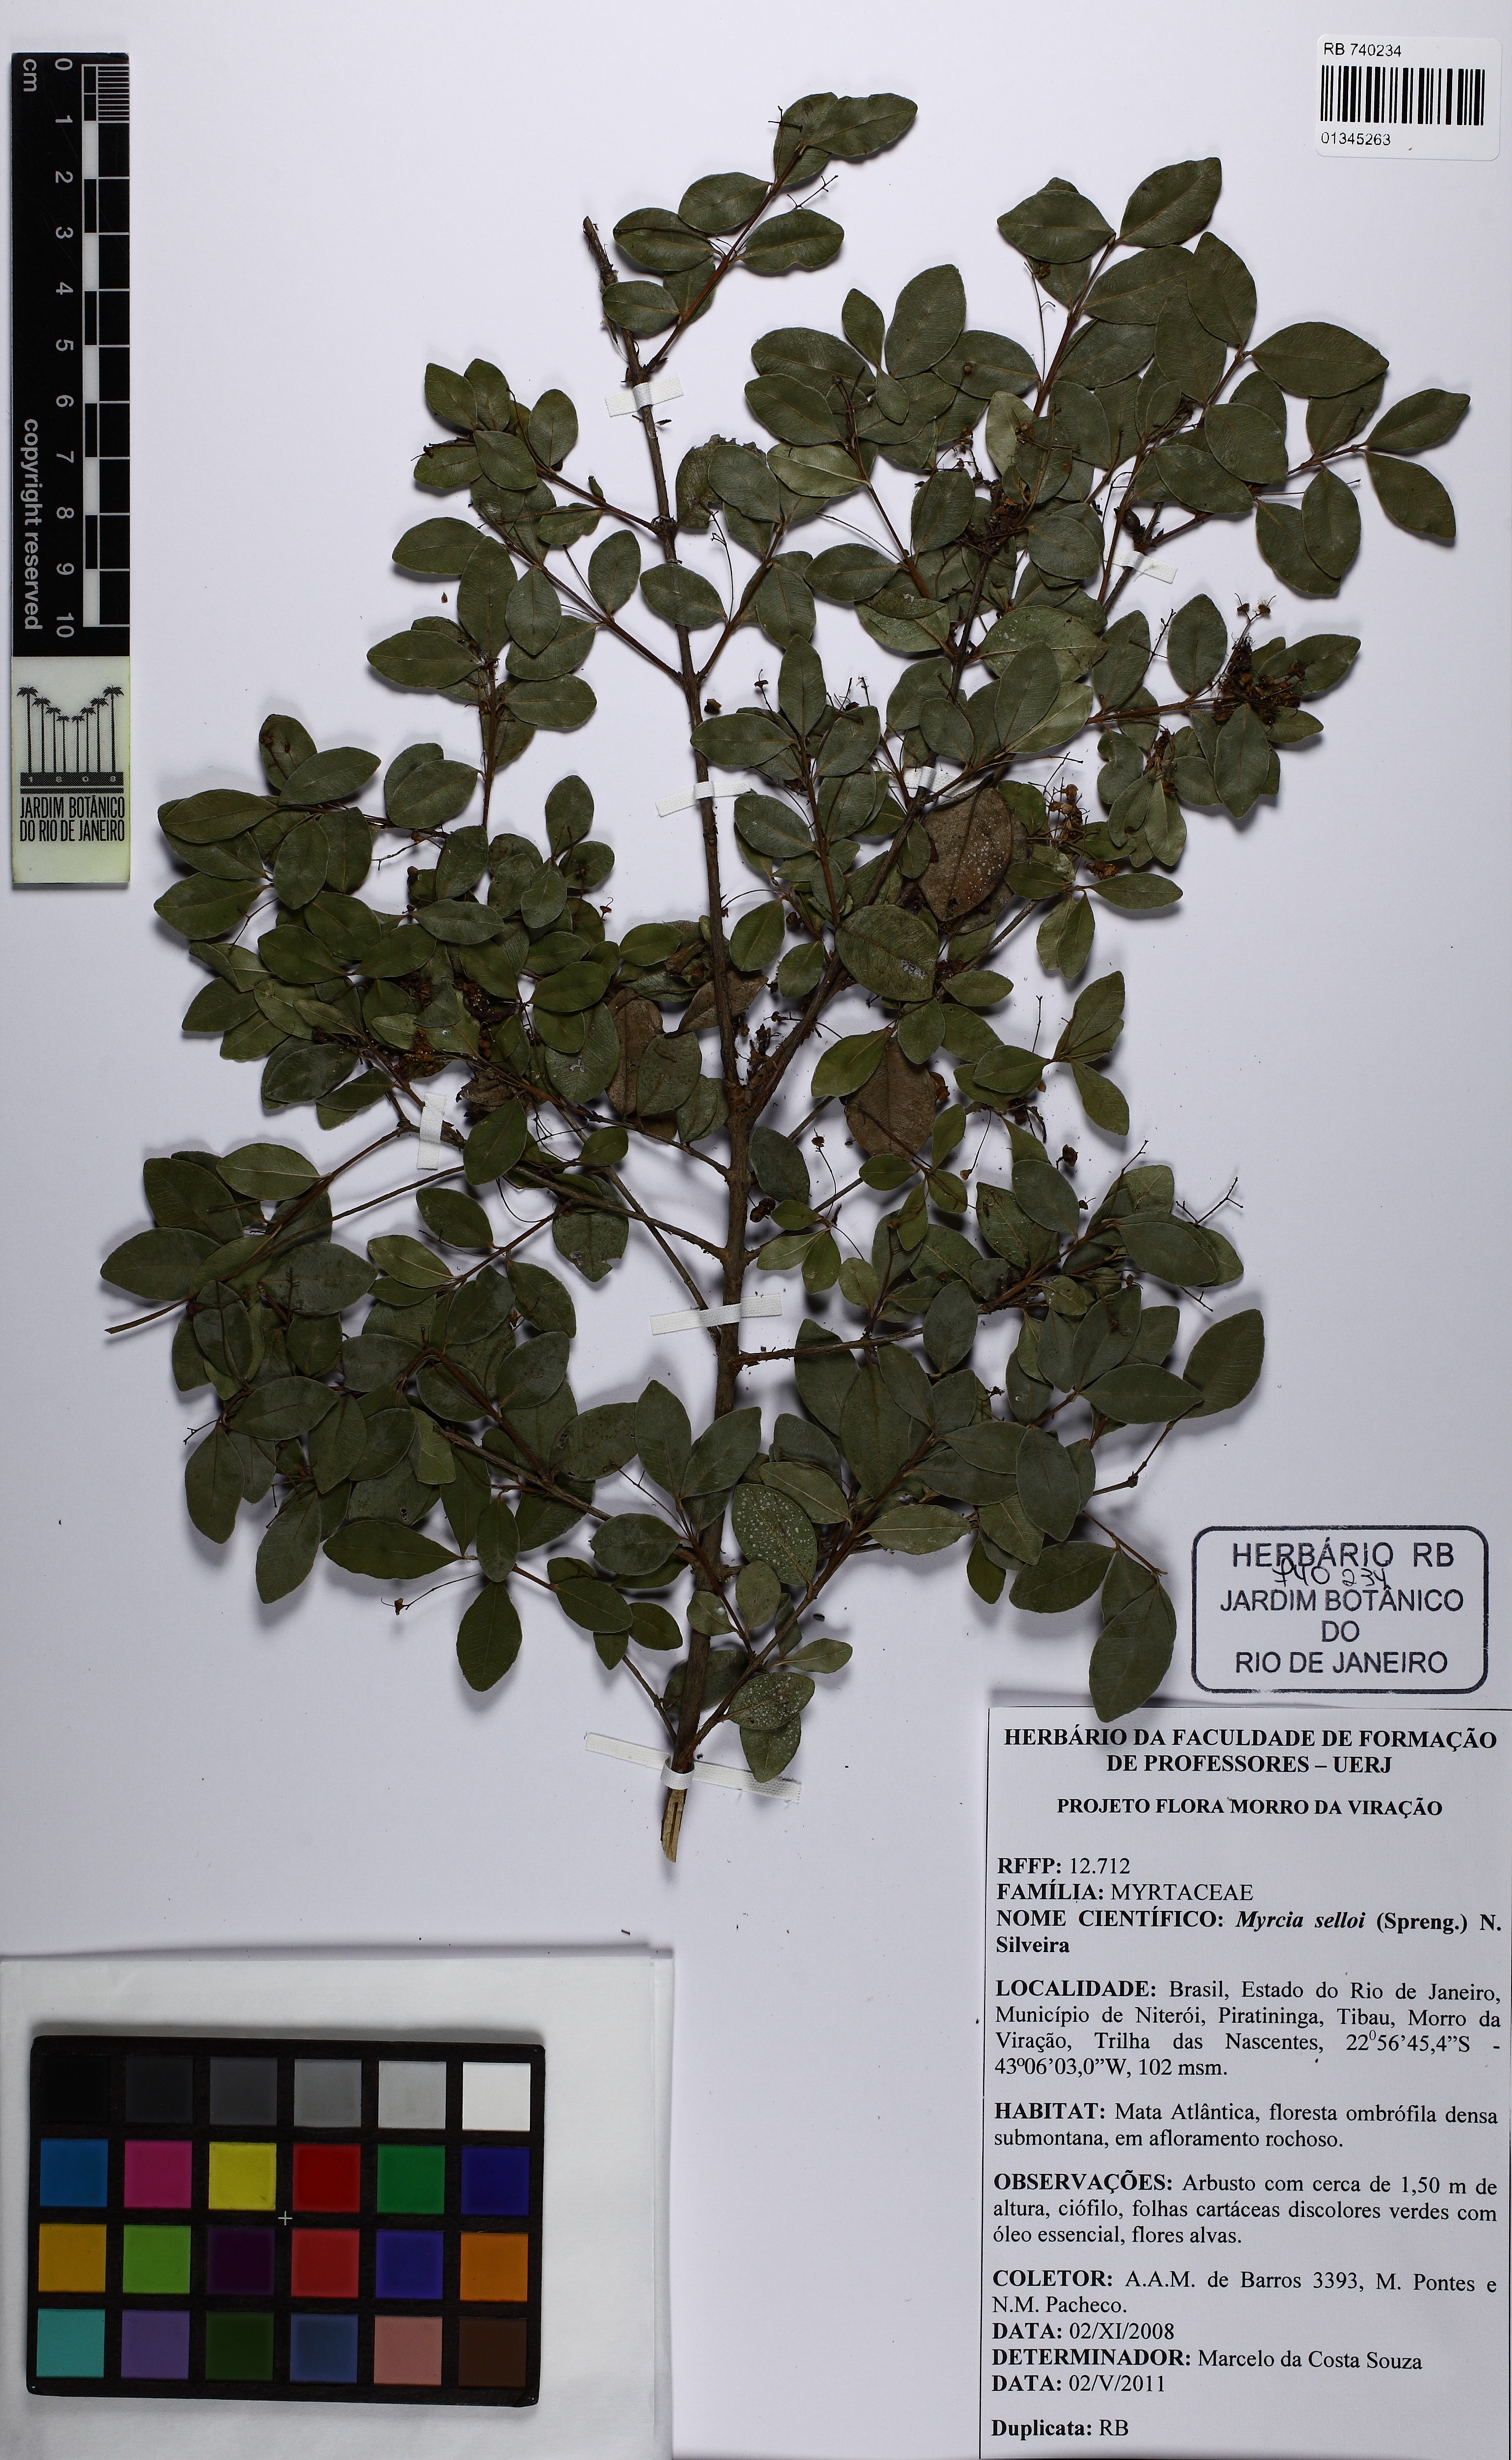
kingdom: Plantae
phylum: Tracheophyta
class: Magnoliopsida
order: Myrtales
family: Myrtaceae
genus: Myrcia
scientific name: Myrcia selloi
